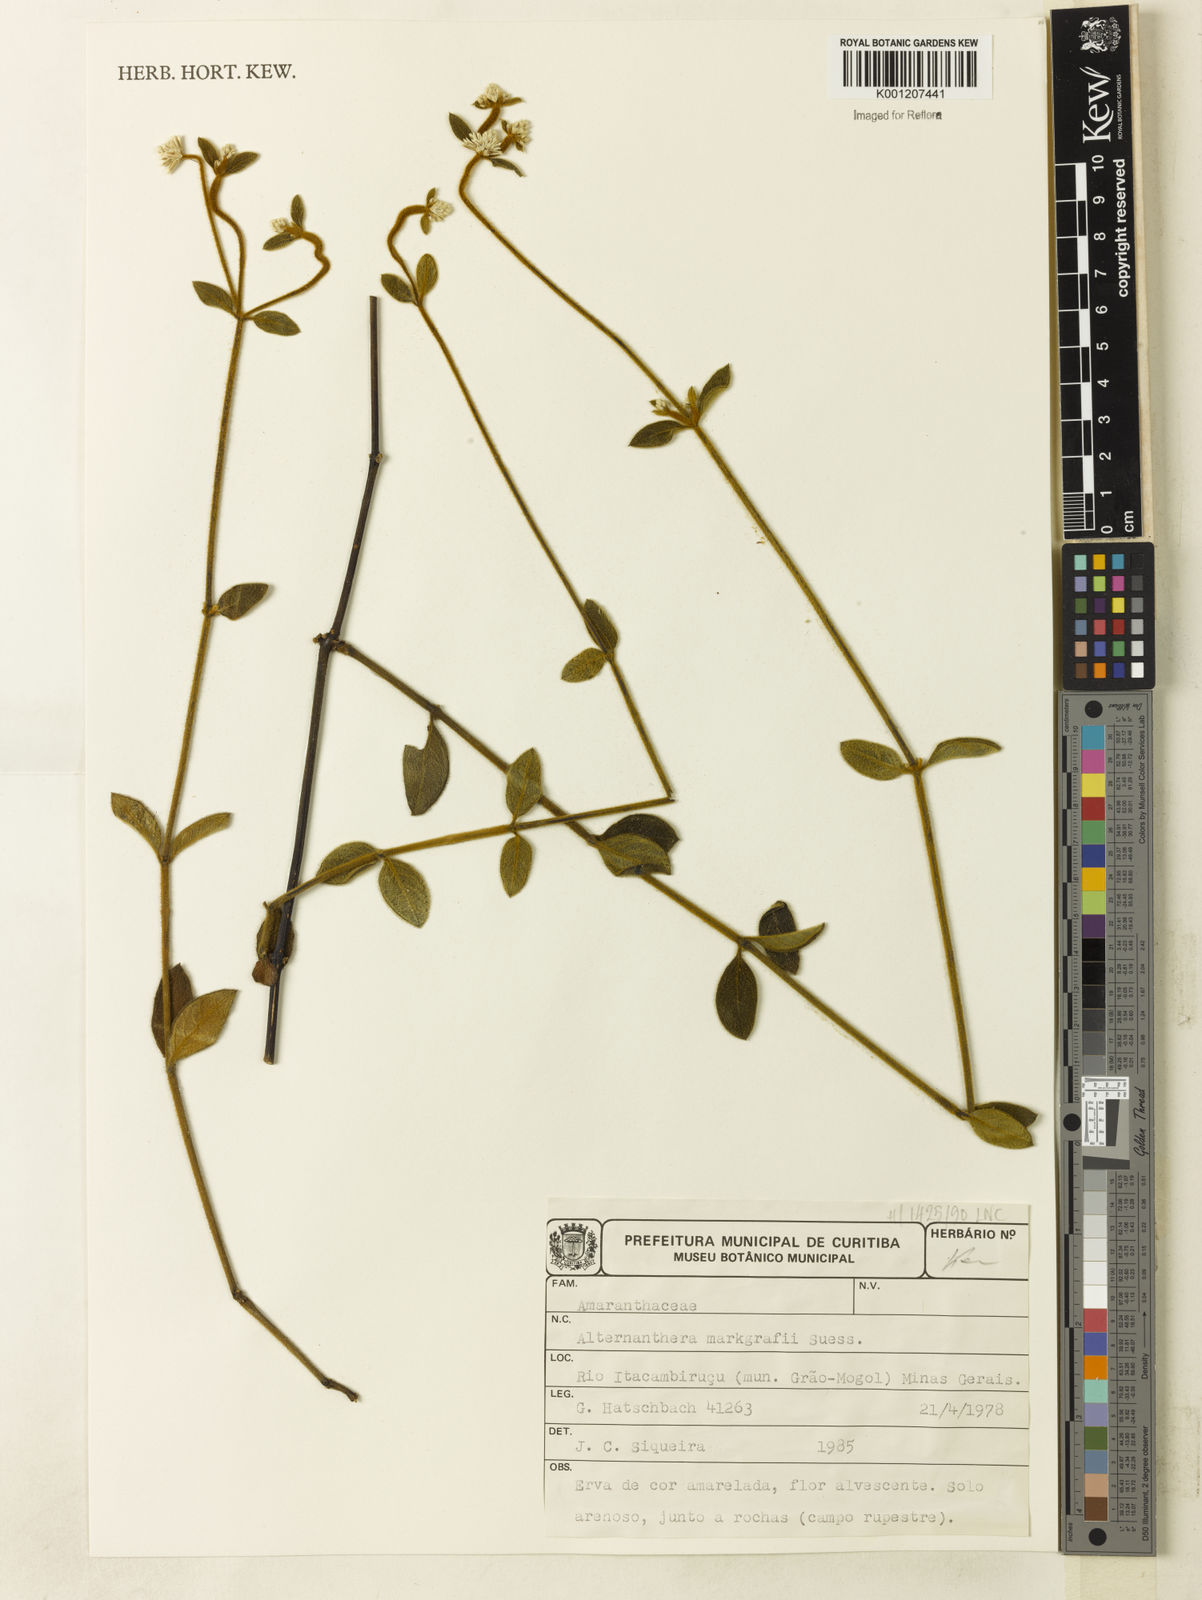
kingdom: Plantae
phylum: Tracheophyta
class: Magnoliopsida
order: Caryophyllales
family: Amaranthaceae
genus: Alternanthera
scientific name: Alternanthera markgrafii
